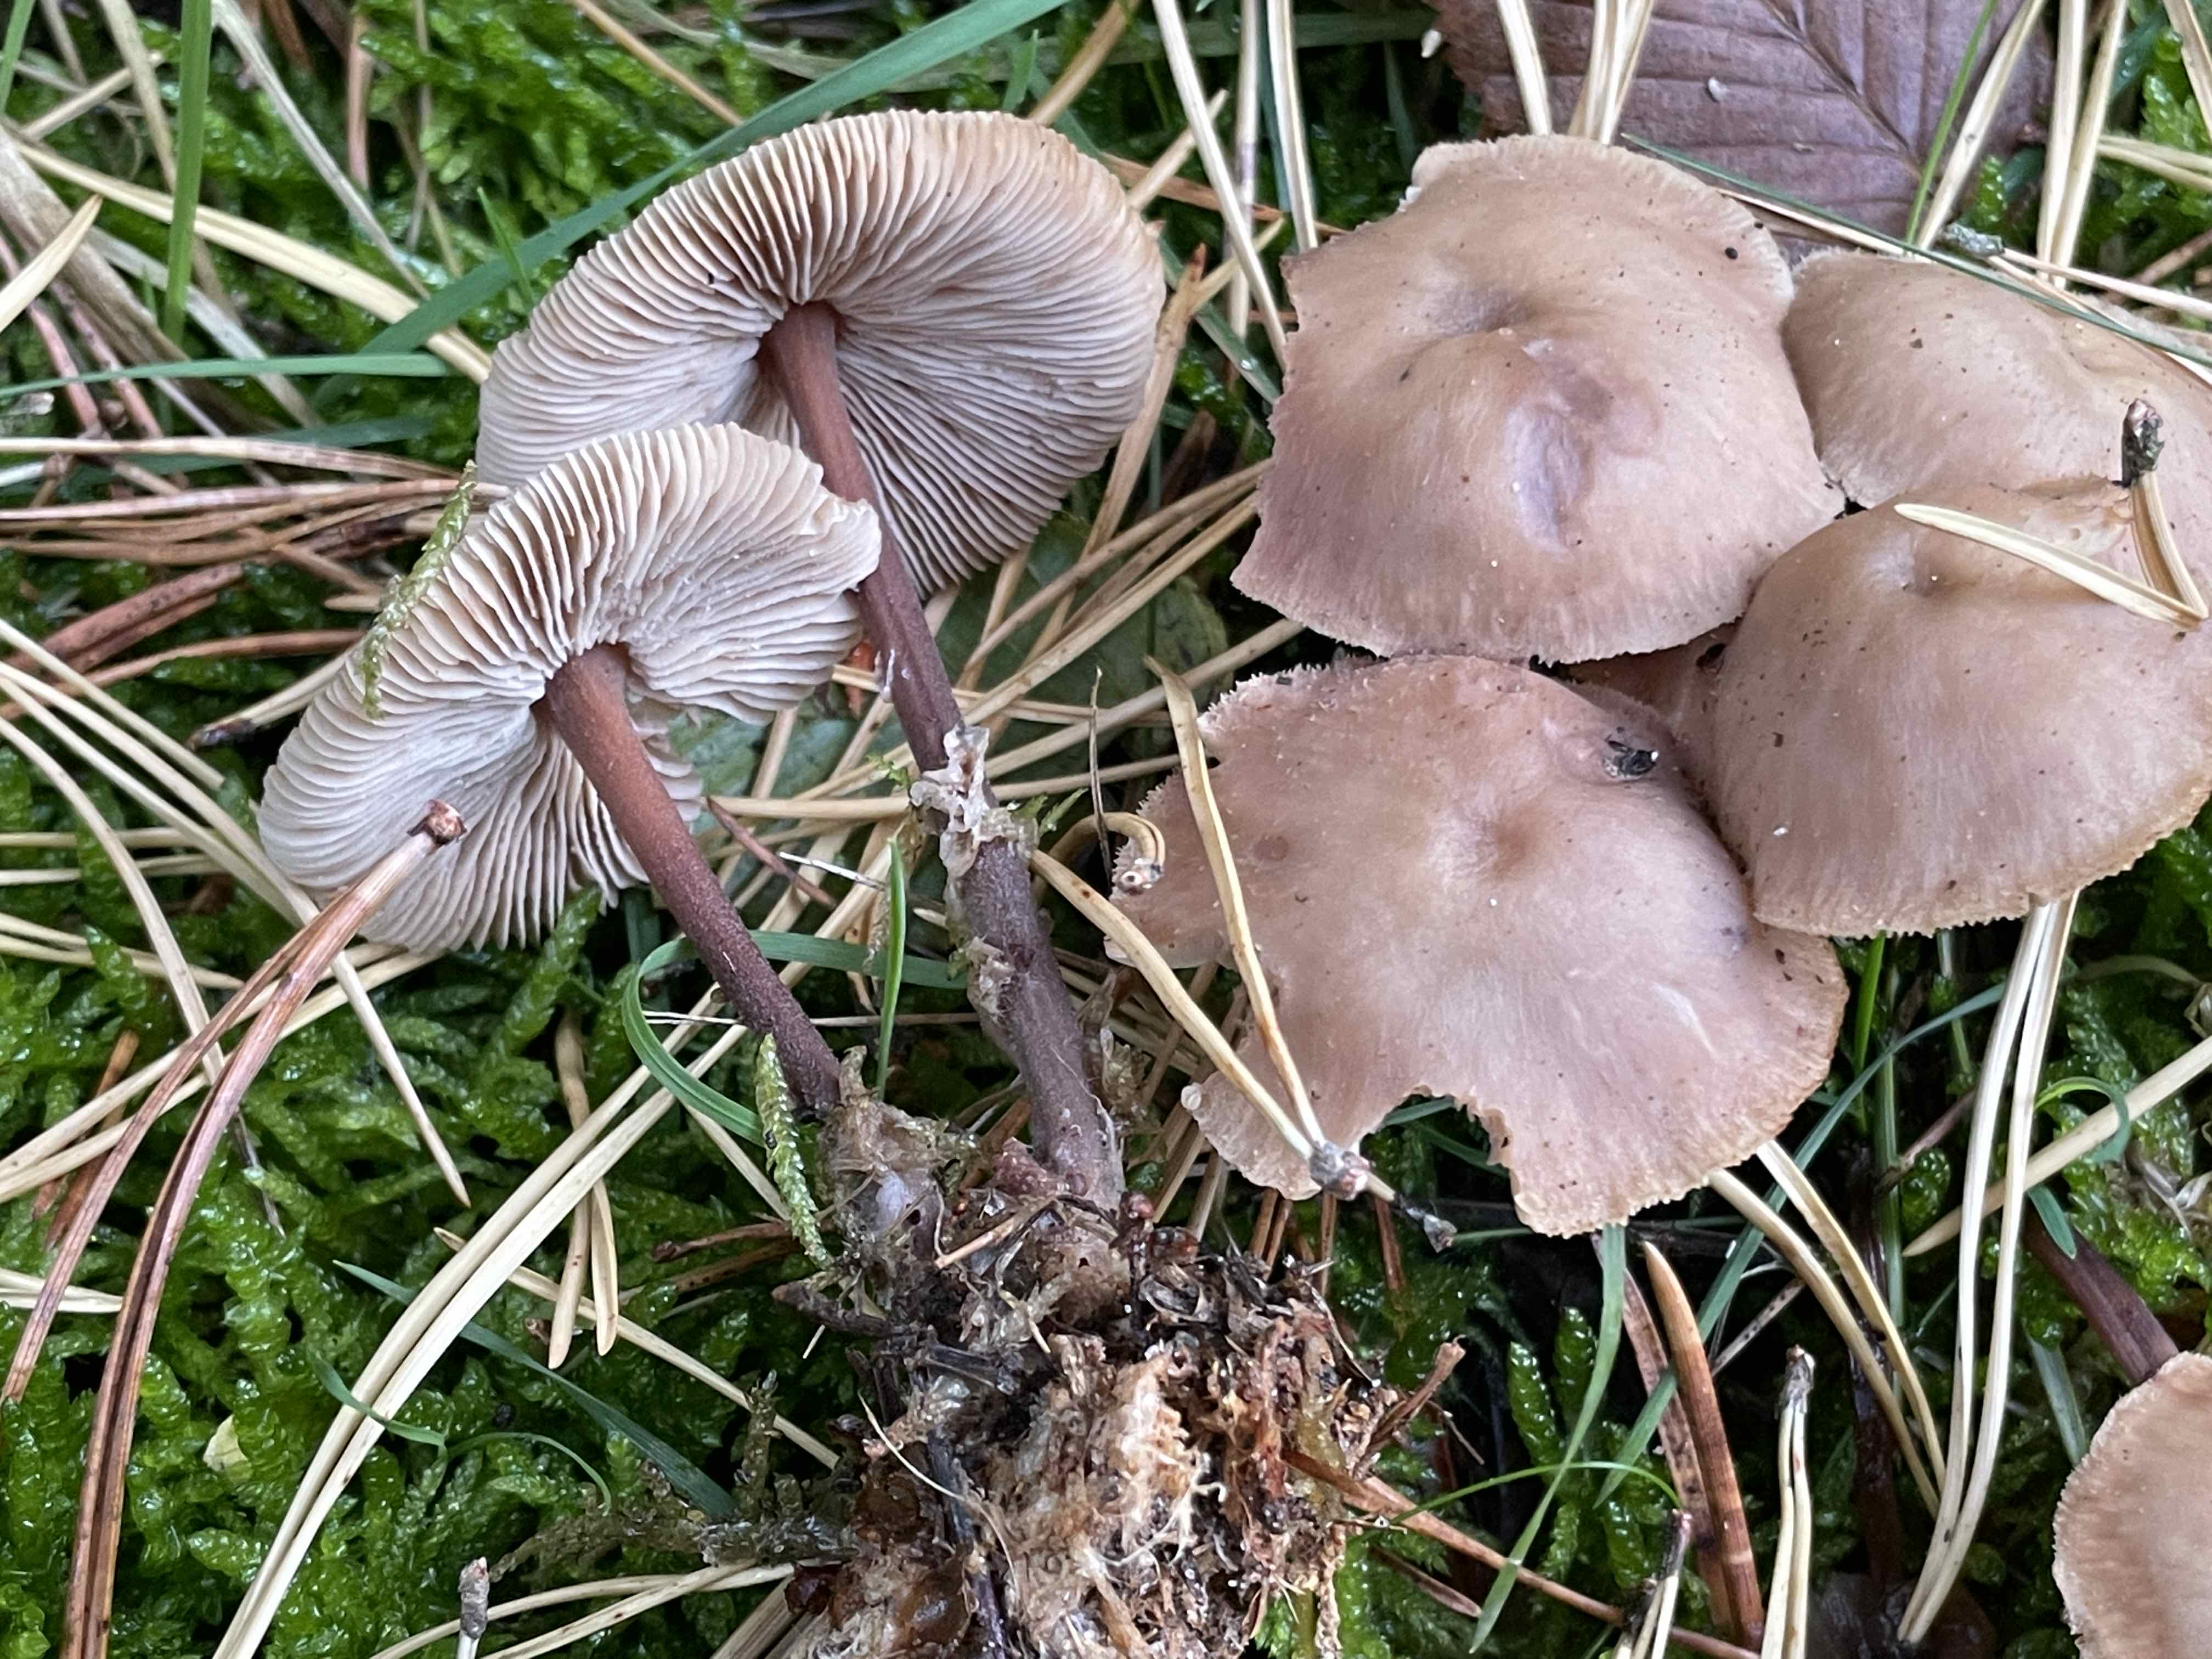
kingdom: Fungi
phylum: Basidiomycota
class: Agaricomycetes
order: Agaricales
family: Omphalotaceae
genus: Gymnopus
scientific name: Gymnopus
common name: fladhat
